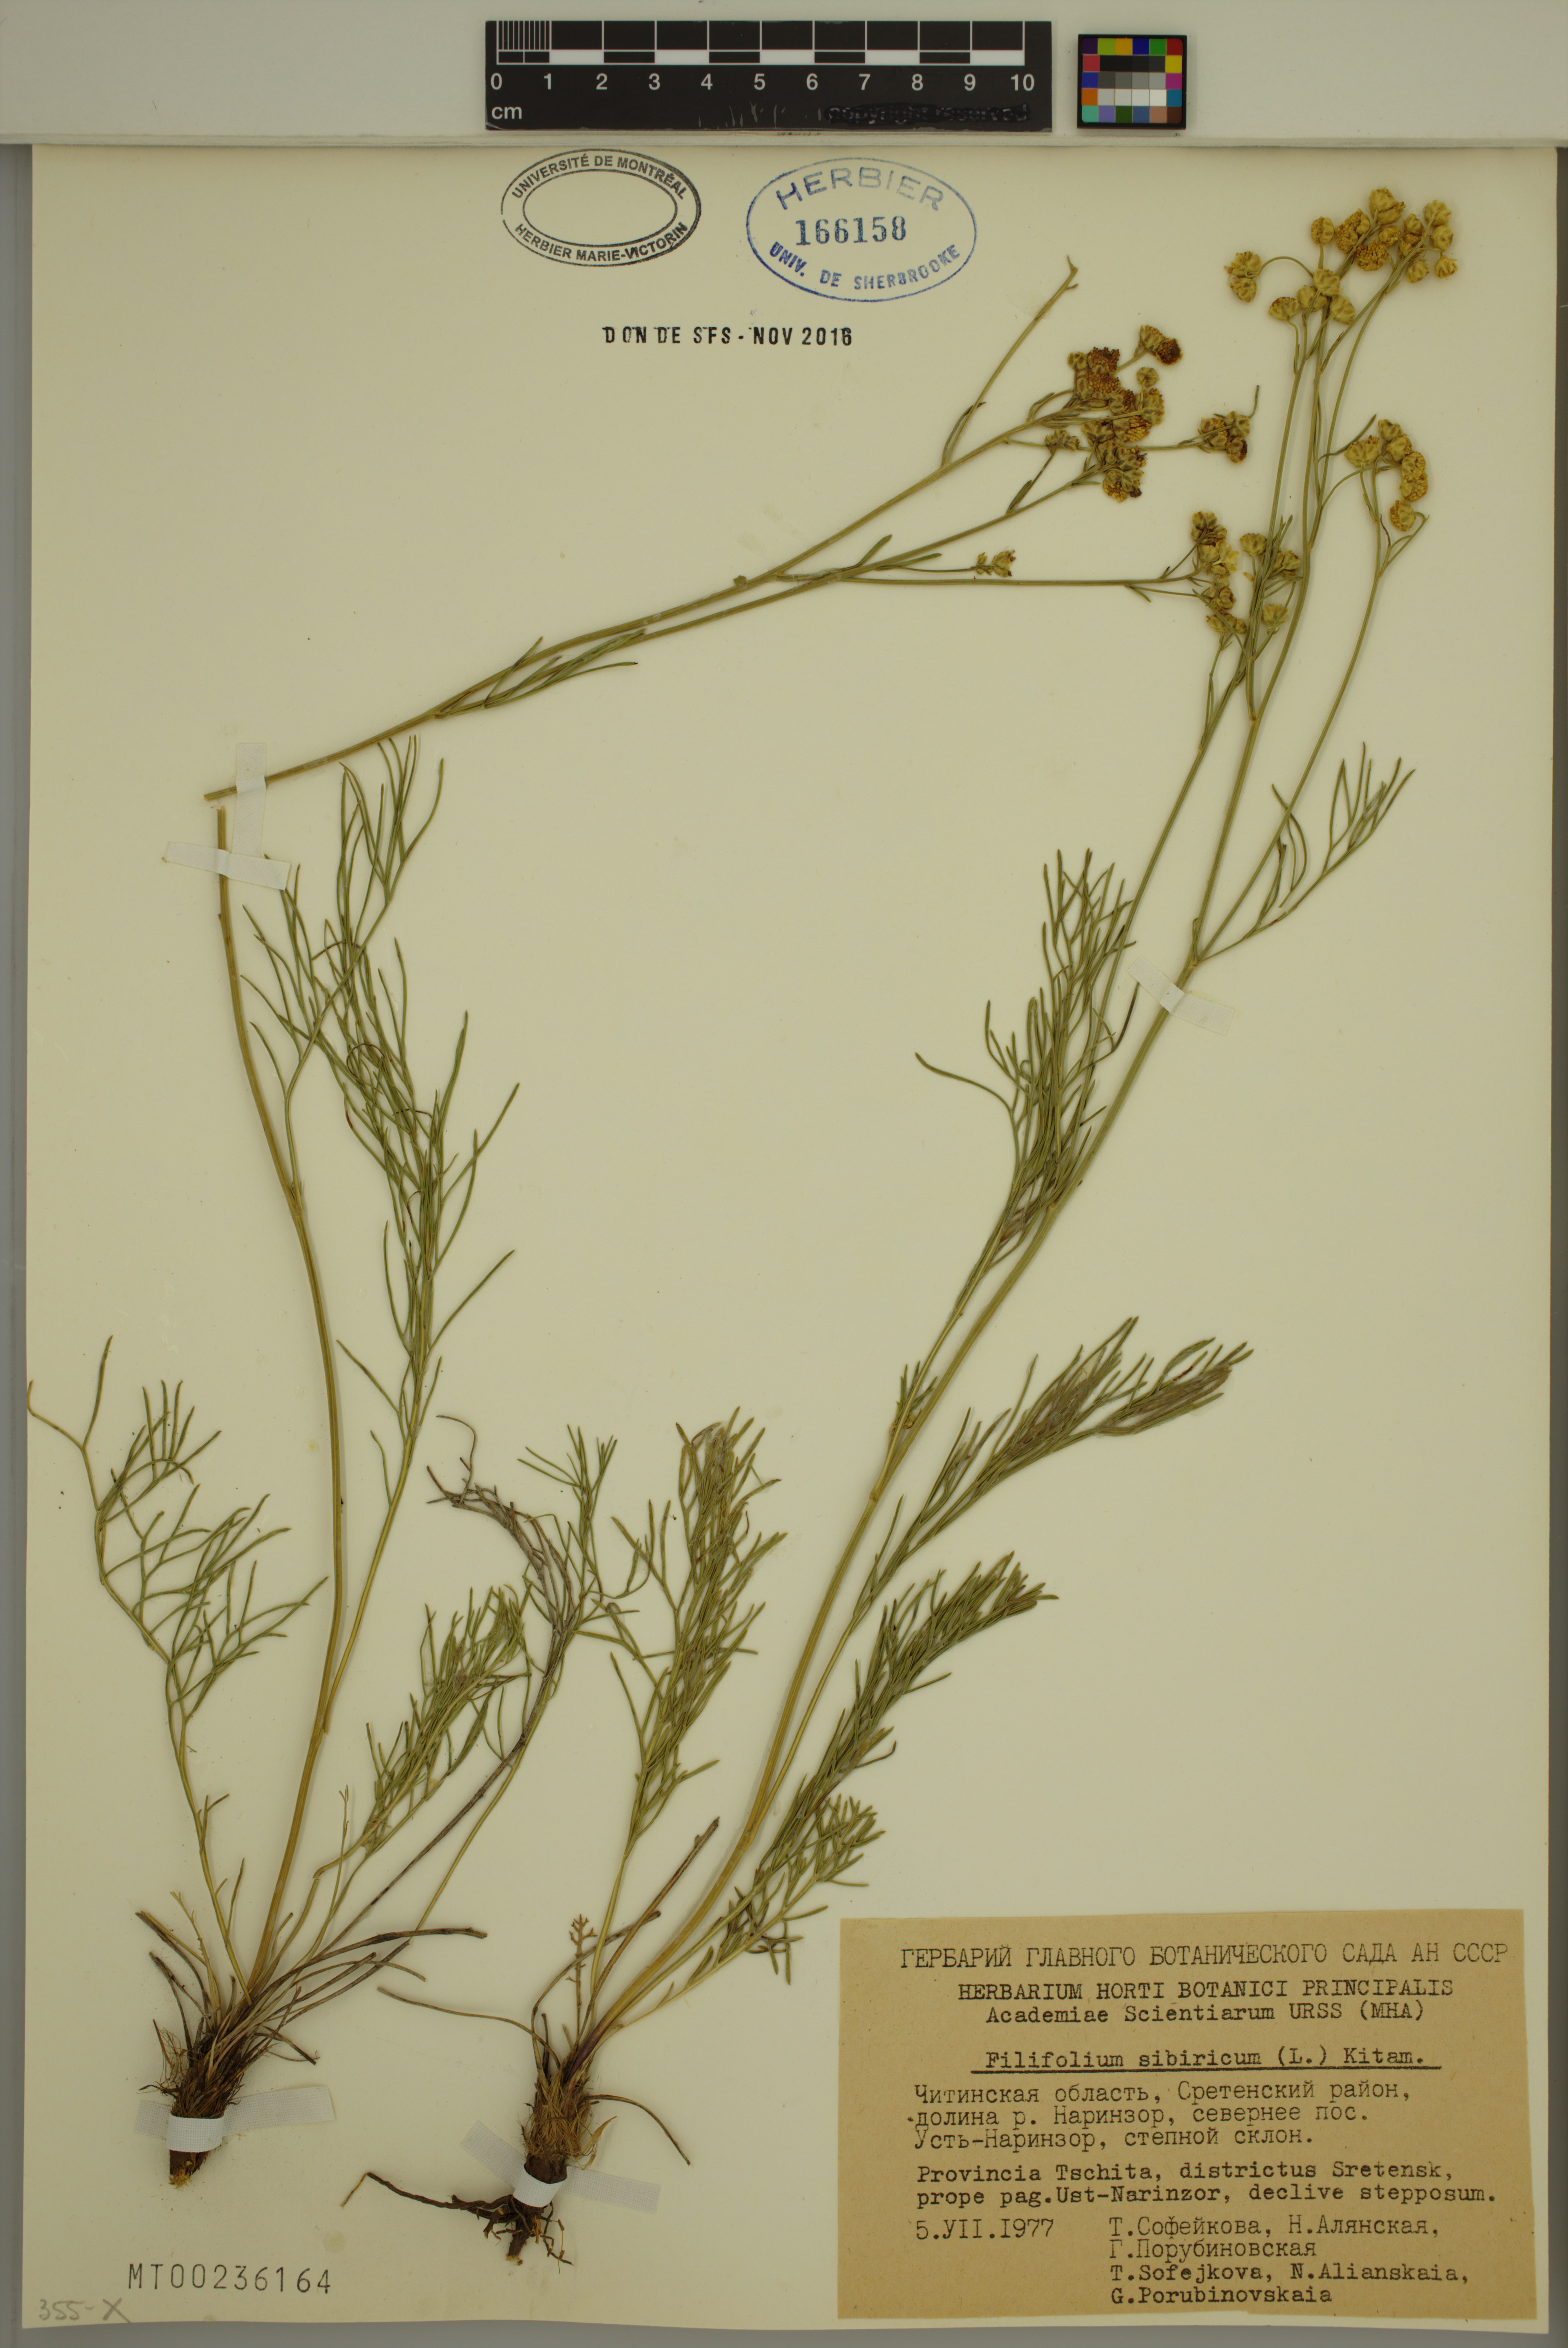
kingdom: Plantae
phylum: Tracheophyta
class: Magnoliopsida
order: Asterales
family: Asteraceae
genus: Filifolium
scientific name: Filifolium sibiricum
